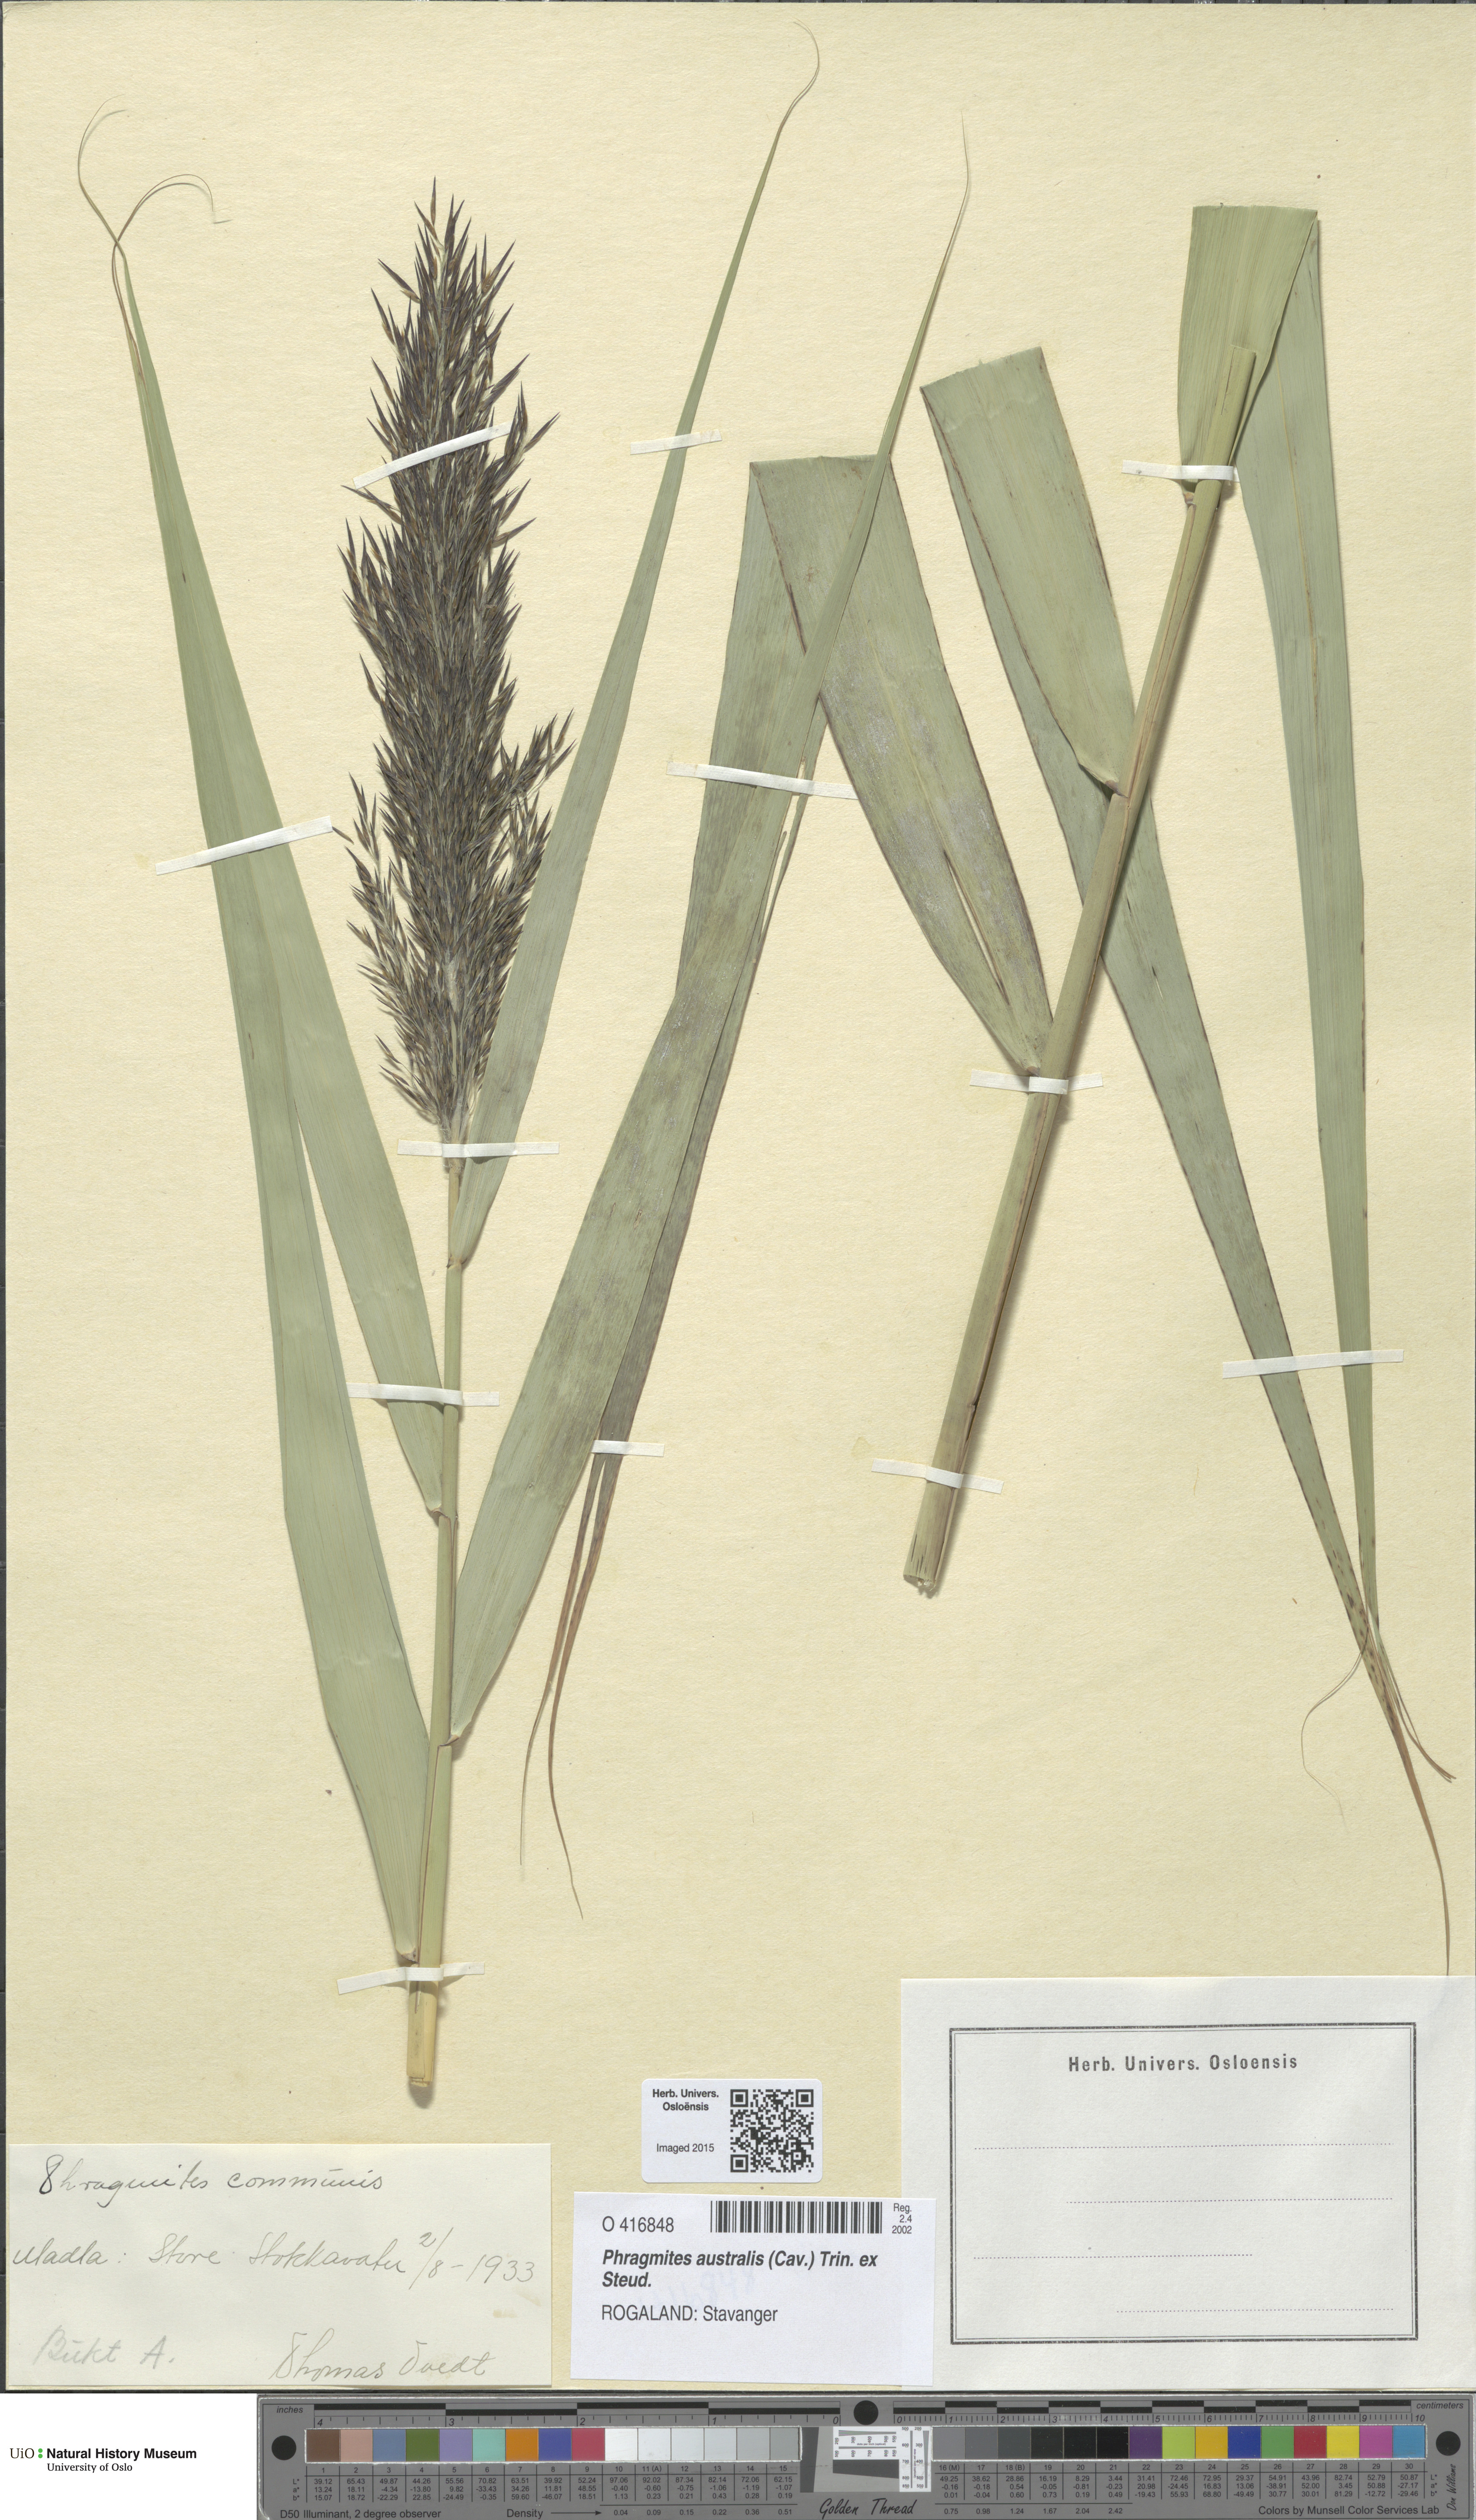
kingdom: Plantae
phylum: Tracheophyta
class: Liliopsida
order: Poales
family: Poaceae
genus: Phragmites
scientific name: Phragmites australis
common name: Common reed
